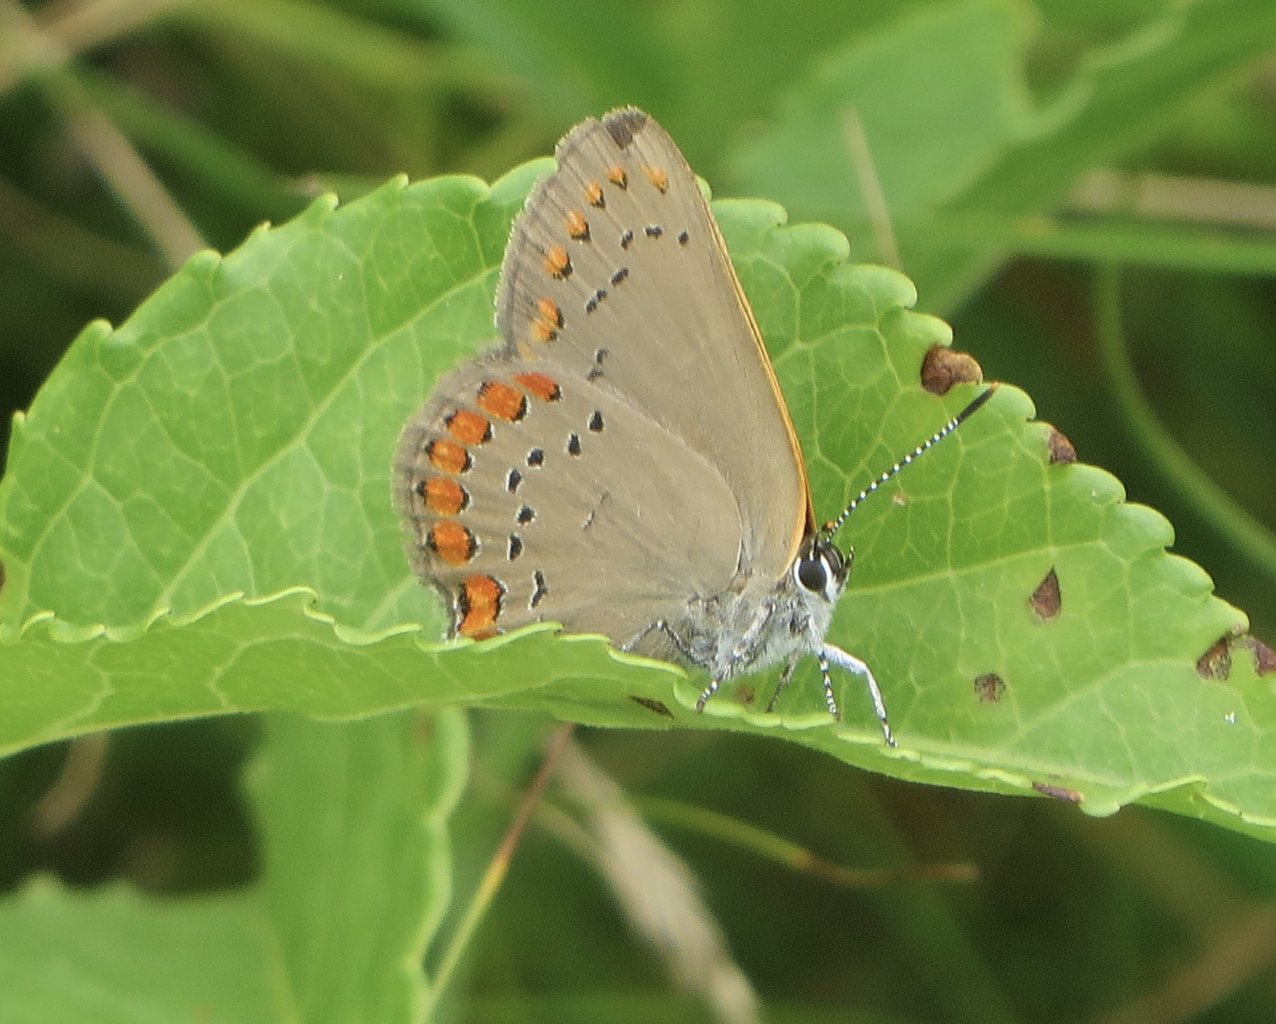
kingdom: Animalia
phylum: Arthropoda
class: Insecta
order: Lepidoptera
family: Lycaenidae
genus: Harkenclenus
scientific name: Harkenclenus titus
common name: Coral Hairstreak
